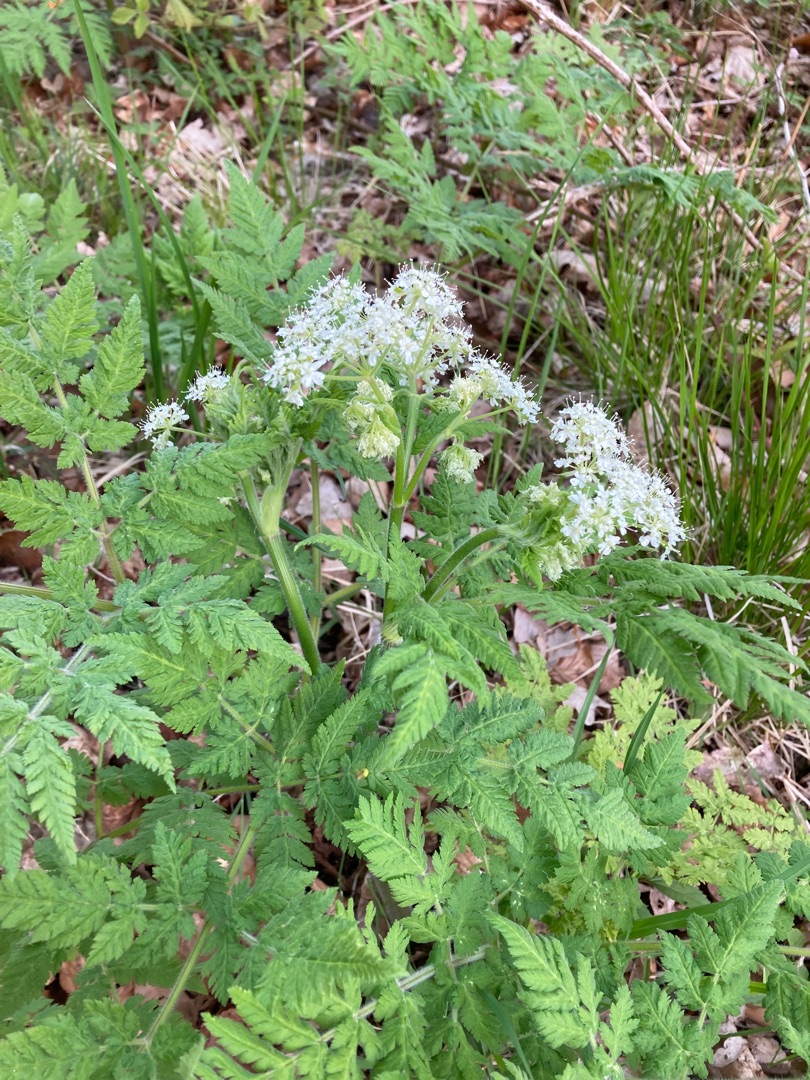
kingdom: Plantae
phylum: Tracheophyta
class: Magnoliopsida
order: Apiales
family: Apiaceae
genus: Myrrhis
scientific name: Myrrhis odorata
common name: Sødskærm
